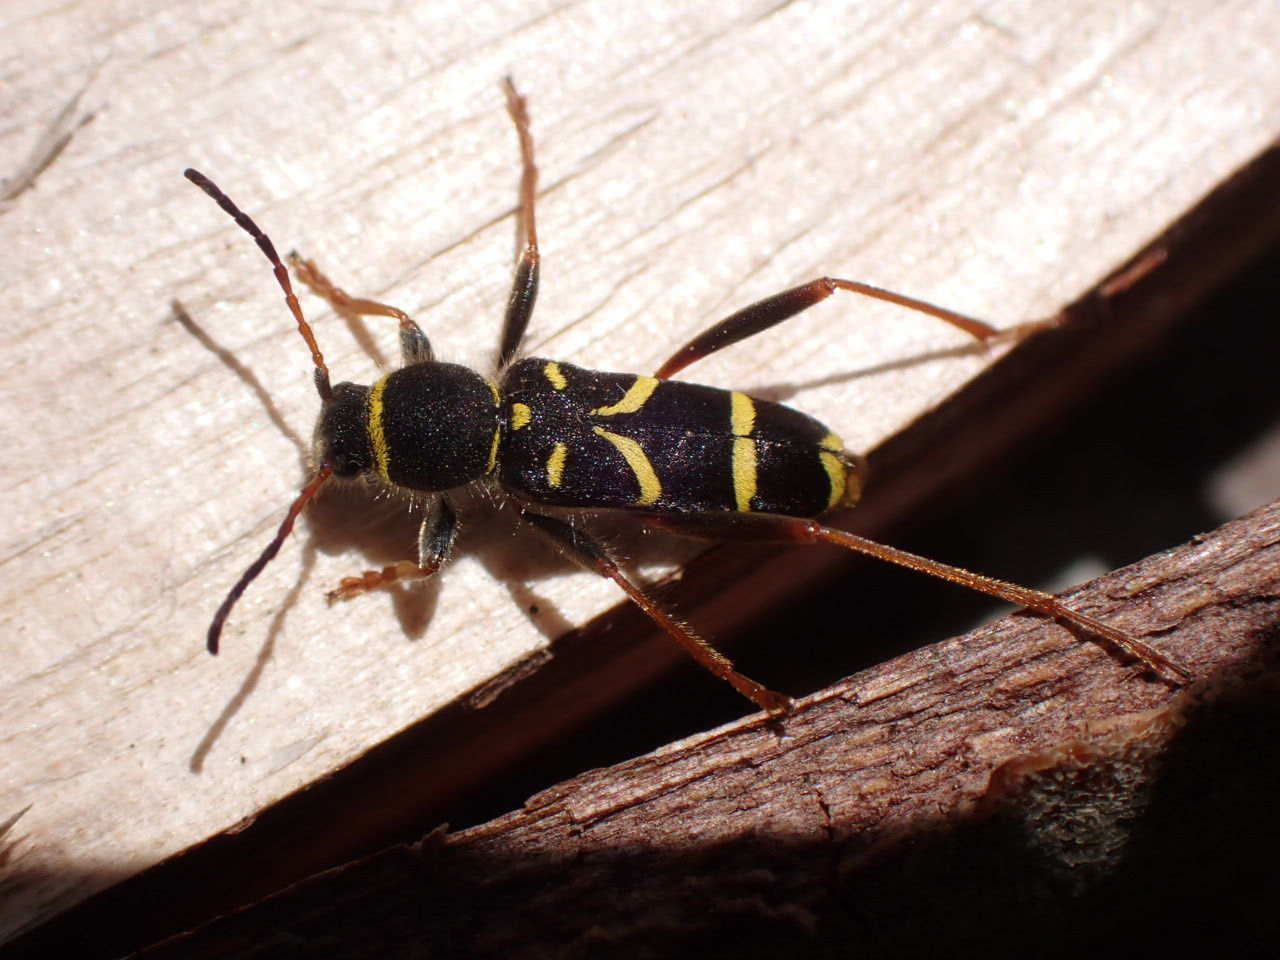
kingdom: Animalia
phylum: Arthropoda
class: Insecta
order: Coleoptera
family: Cerambycidae
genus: Clytus
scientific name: Clytus arietis
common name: Lille hvepsebuk
